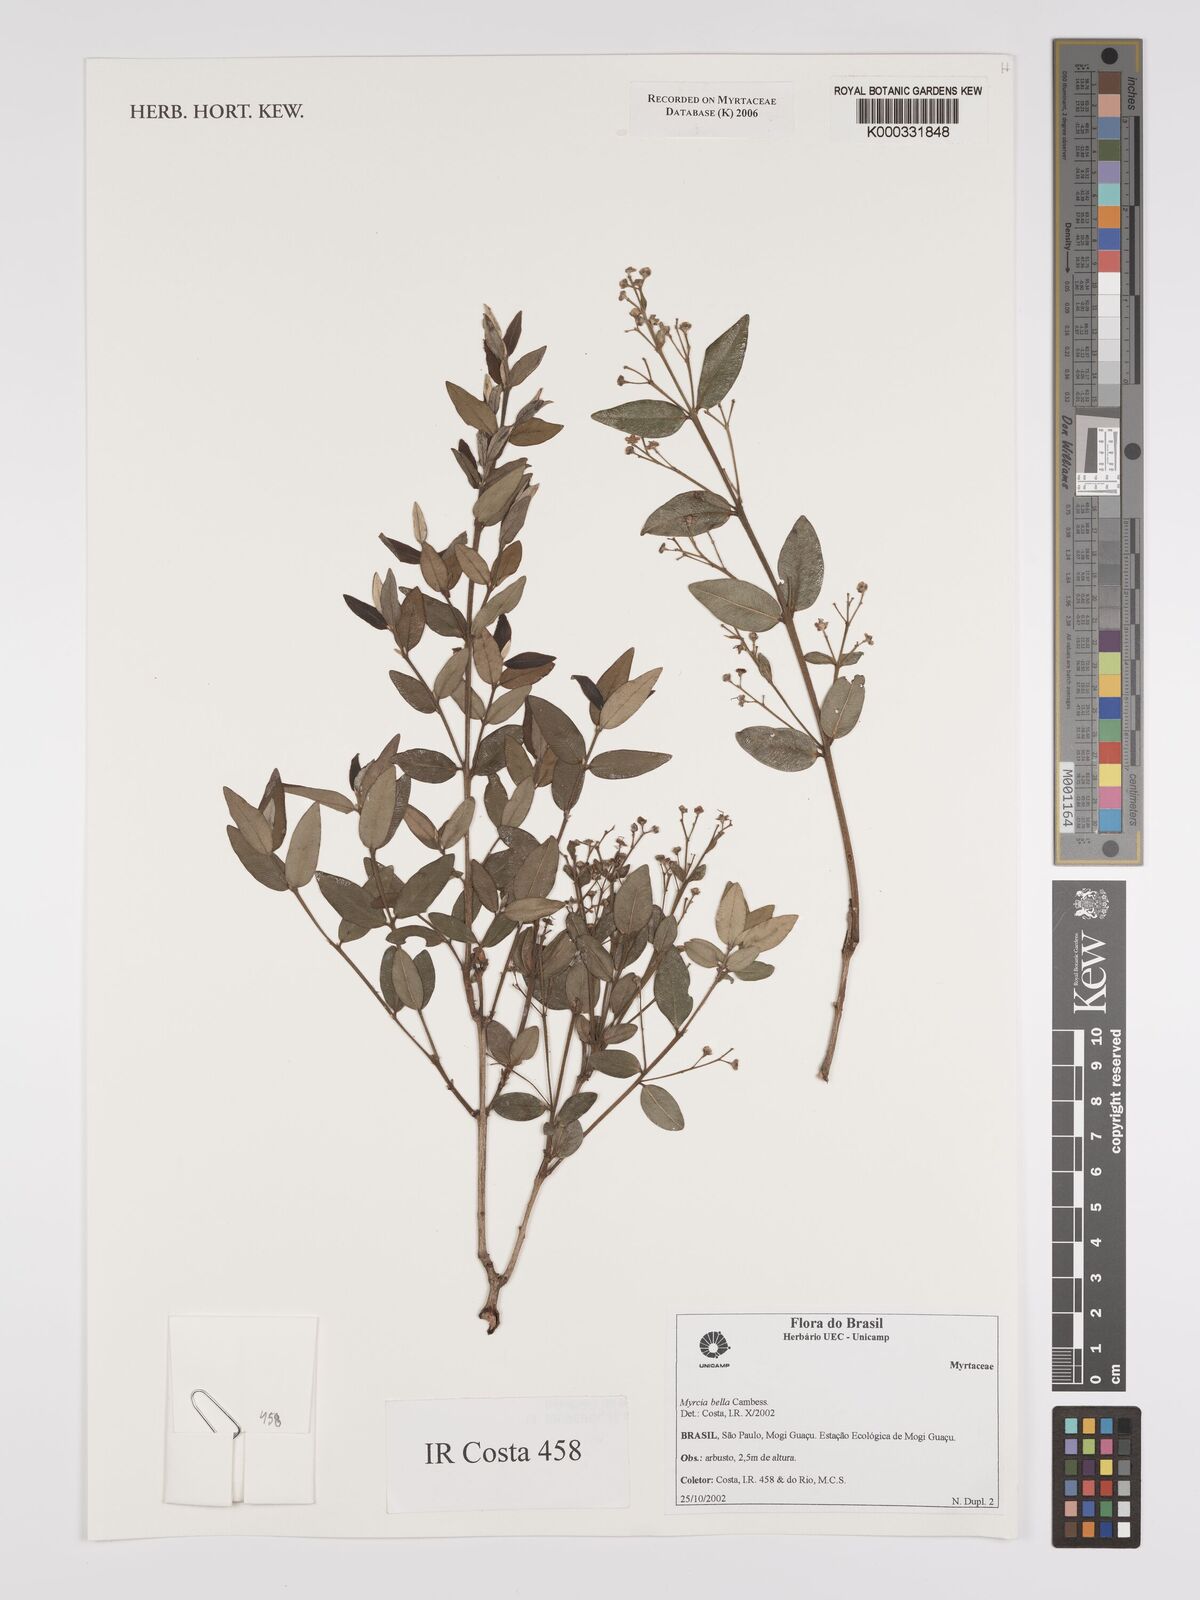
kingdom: Plantae
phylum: Tracheophyta
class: Magnoliopsida
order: Myrtales
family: Myrtaceae
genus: Myrcia
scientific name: Myrcia bella
